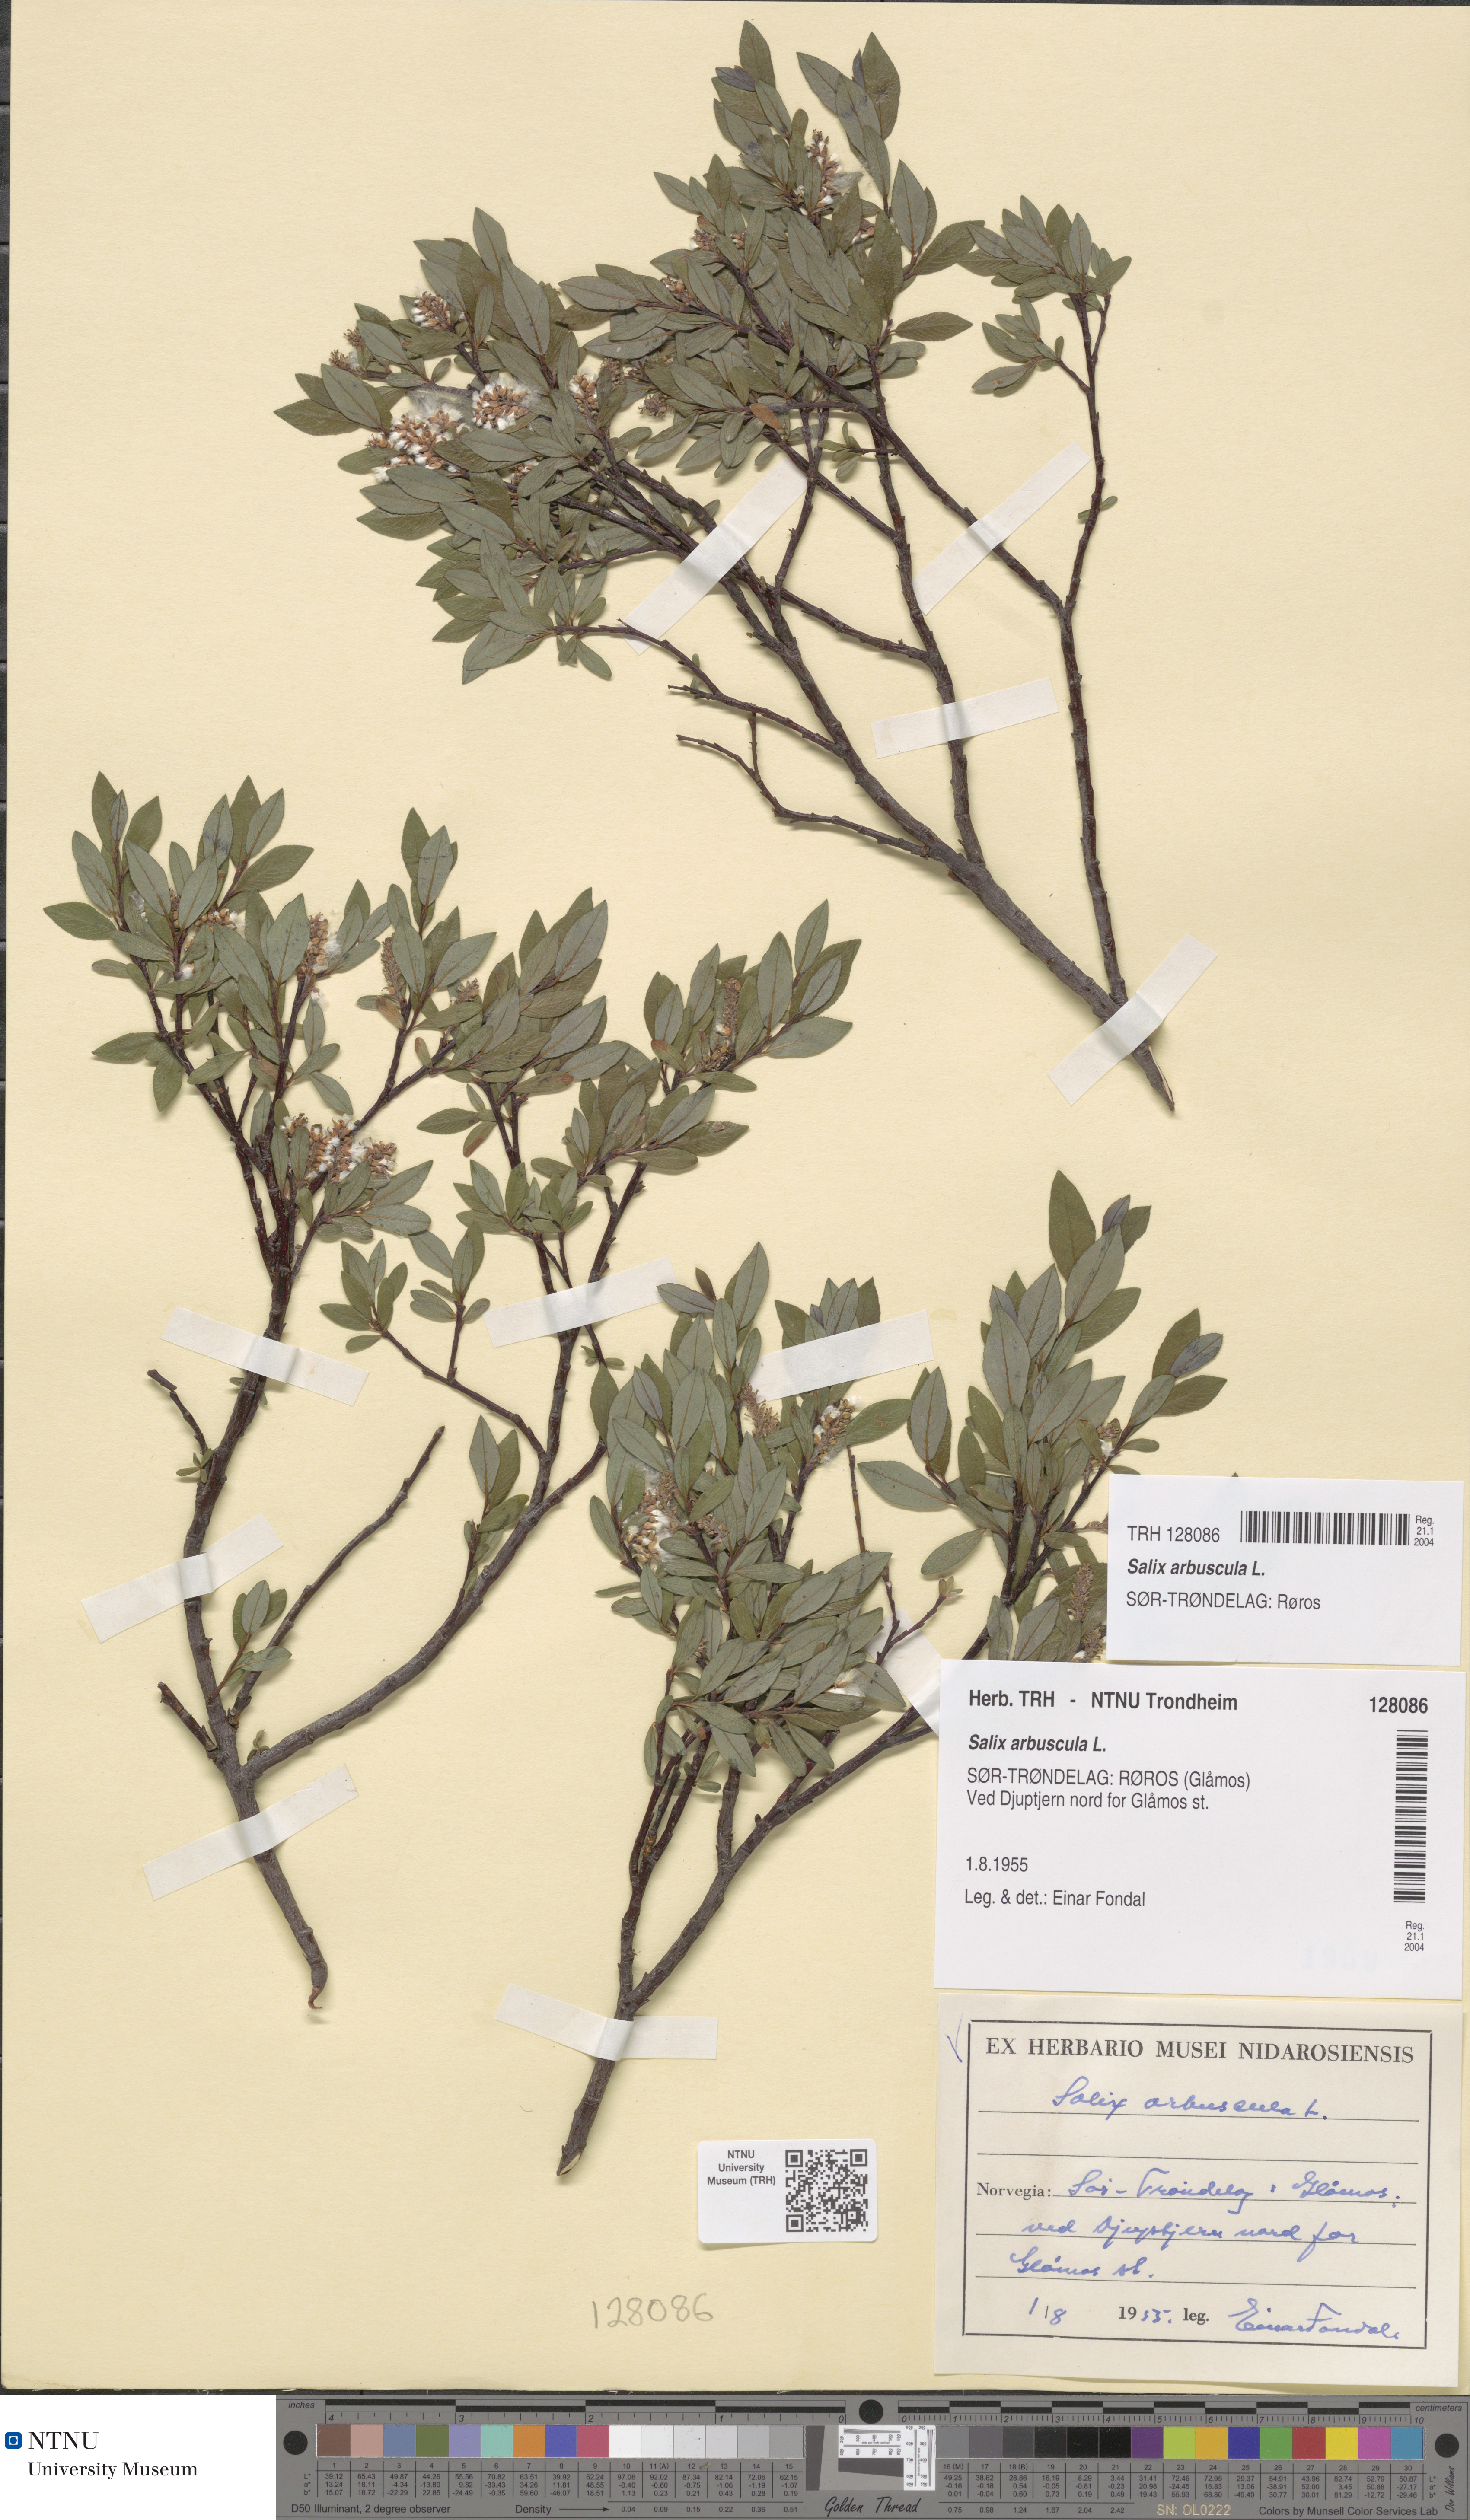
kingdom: Plantae
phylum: Tracheophyta
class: Magnoliopsida
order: Malpighiales
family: Salicaceae
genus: Salix
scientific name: Salix arbuscula
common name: Mountain willow
